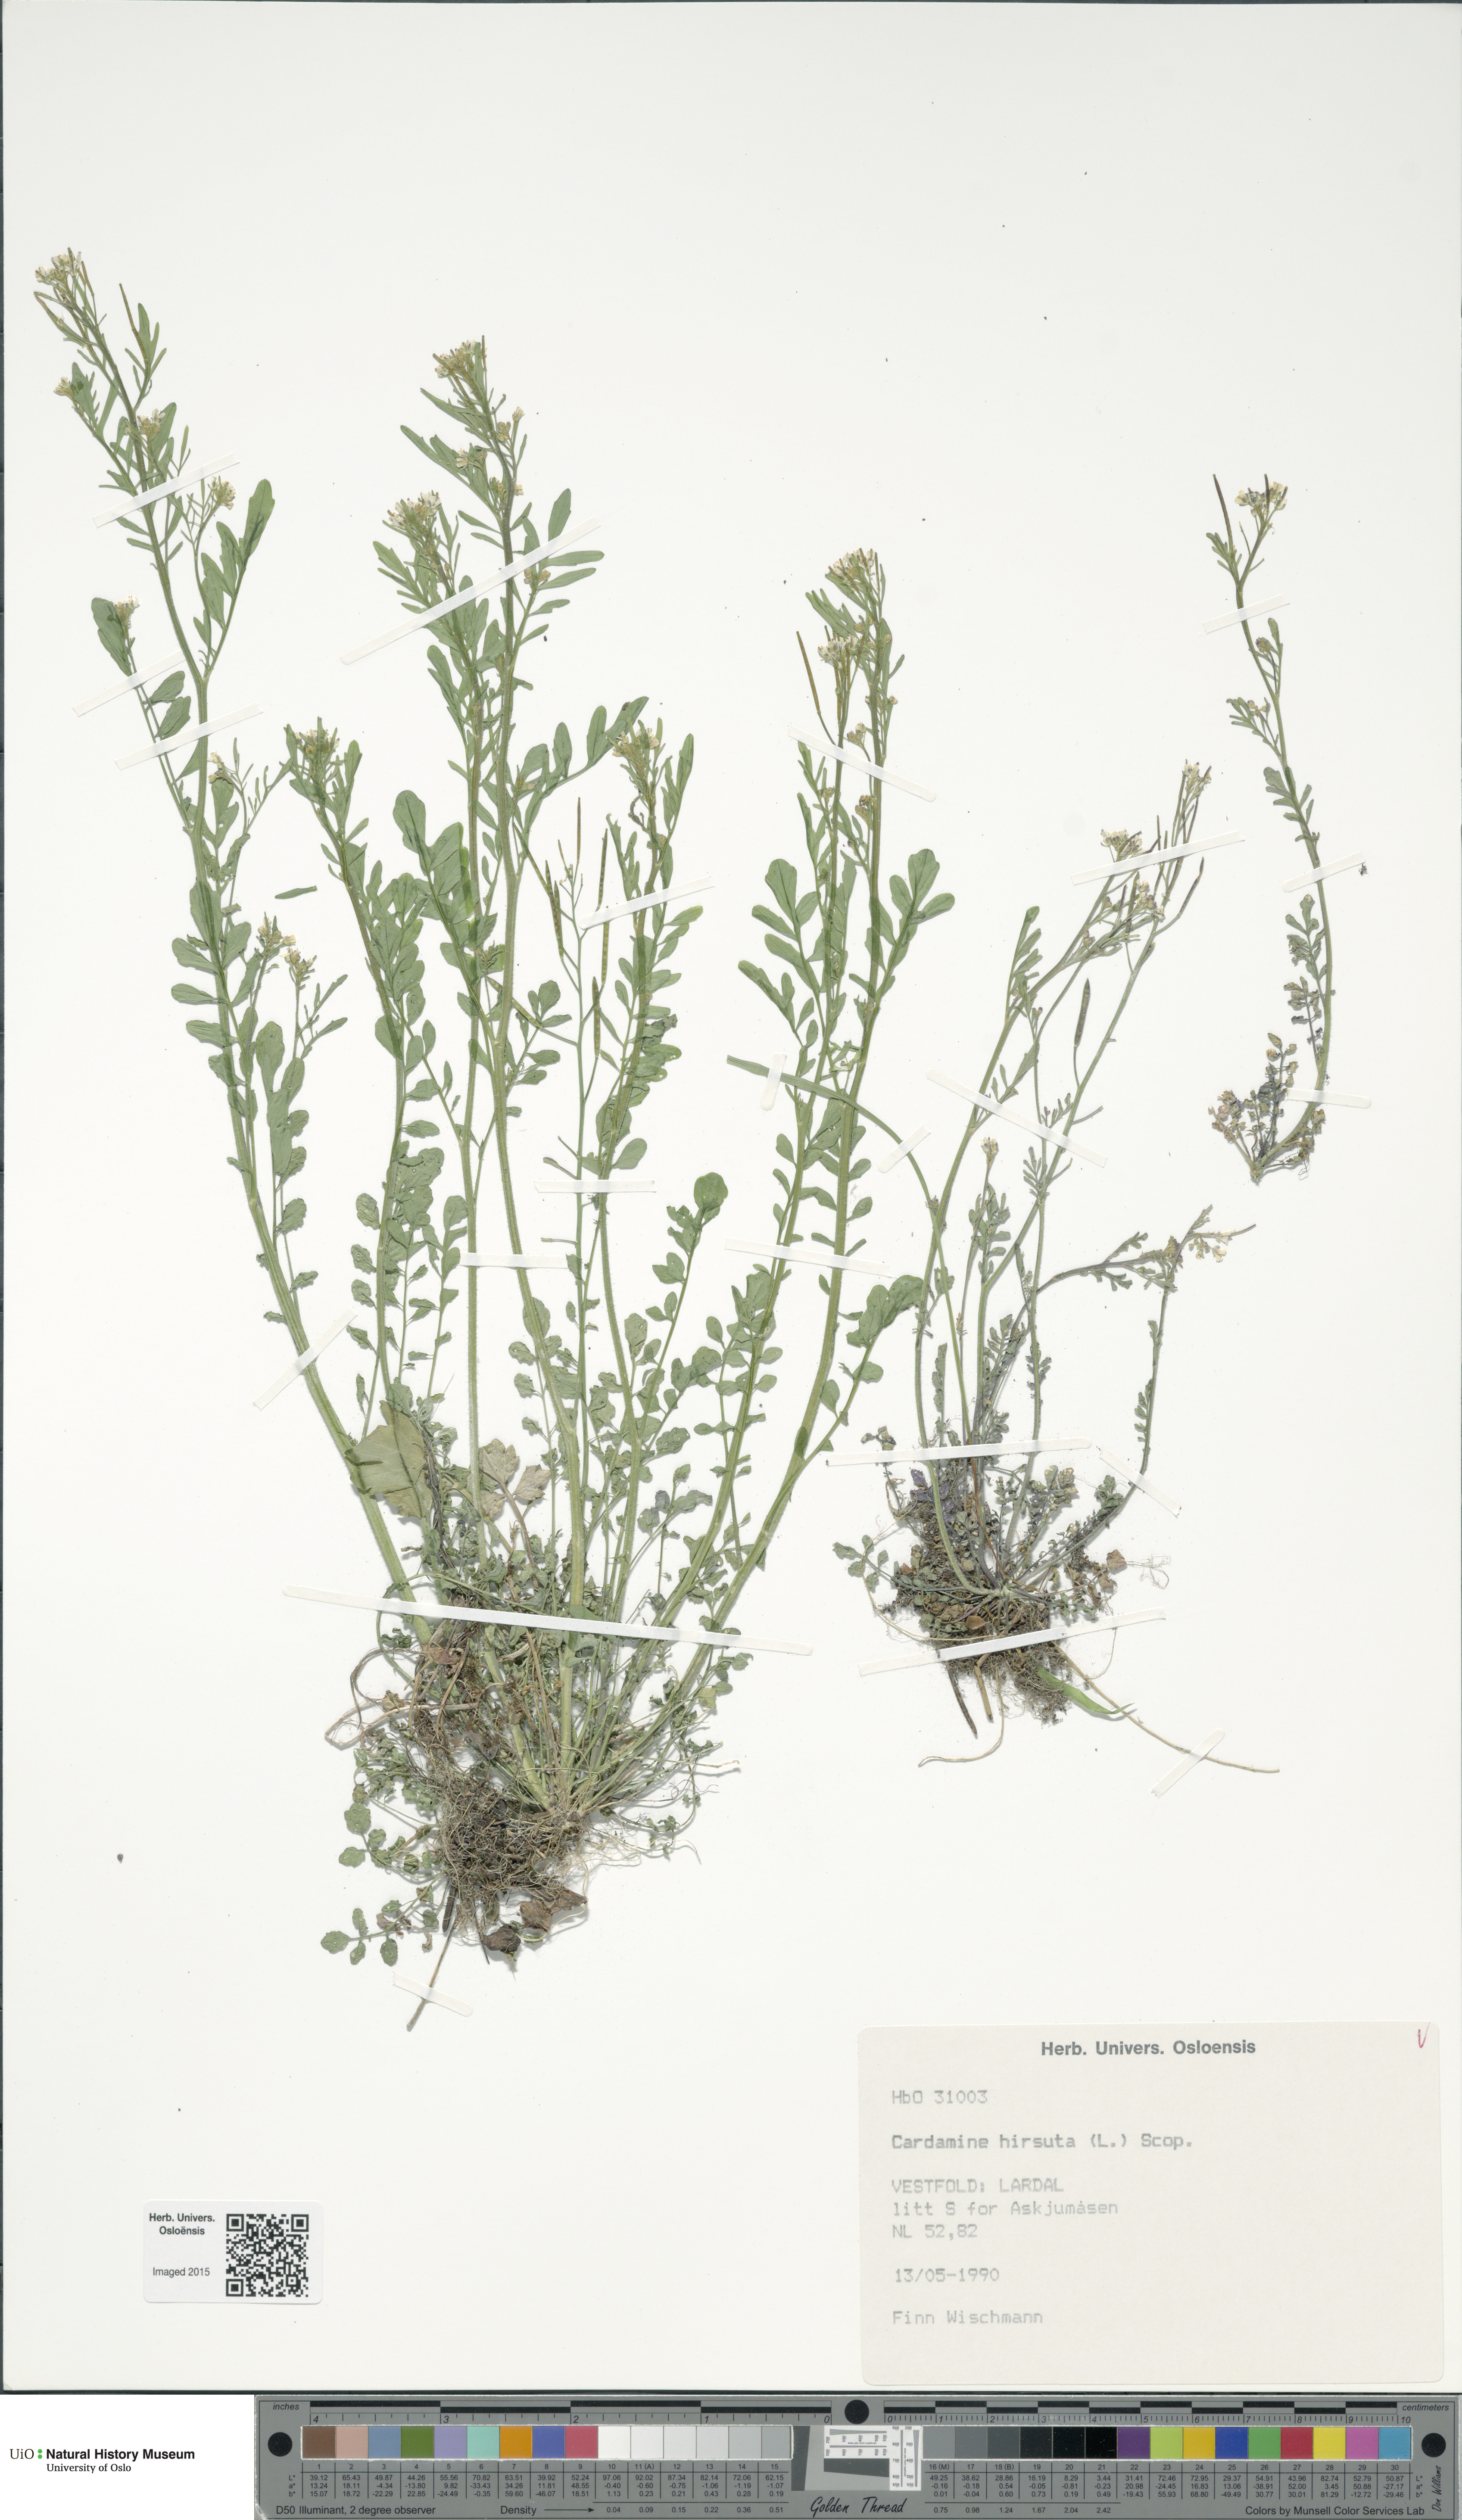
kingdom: Plantae
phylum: Tracheophyta
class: Magnoliopsida
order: Brassicales
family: Brassicaceae
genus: Cardamine
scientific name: Cardamine hirsuta
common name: Hairy bittercress
